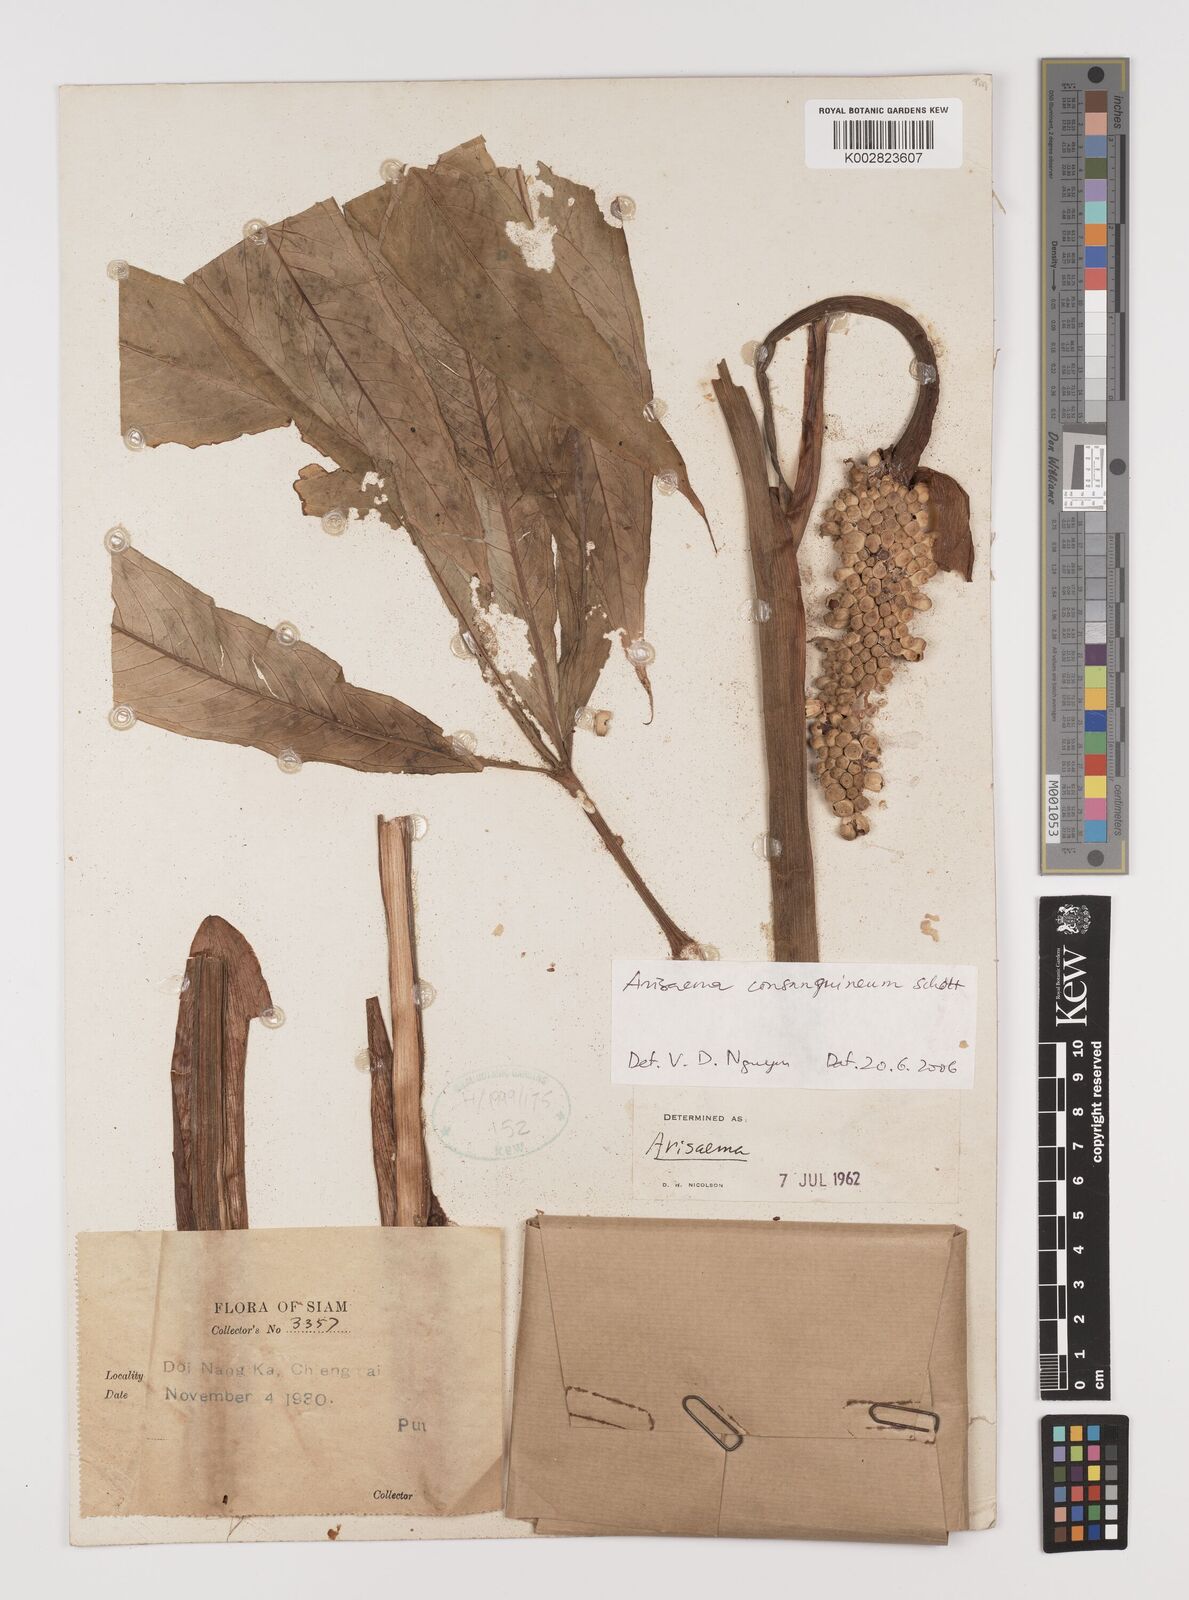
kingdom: Plantae
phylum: Tracheophyta
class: Liliopsida
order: Alismatales
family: Araceae
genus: Arisaema
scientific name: Arisaema consanguineum
